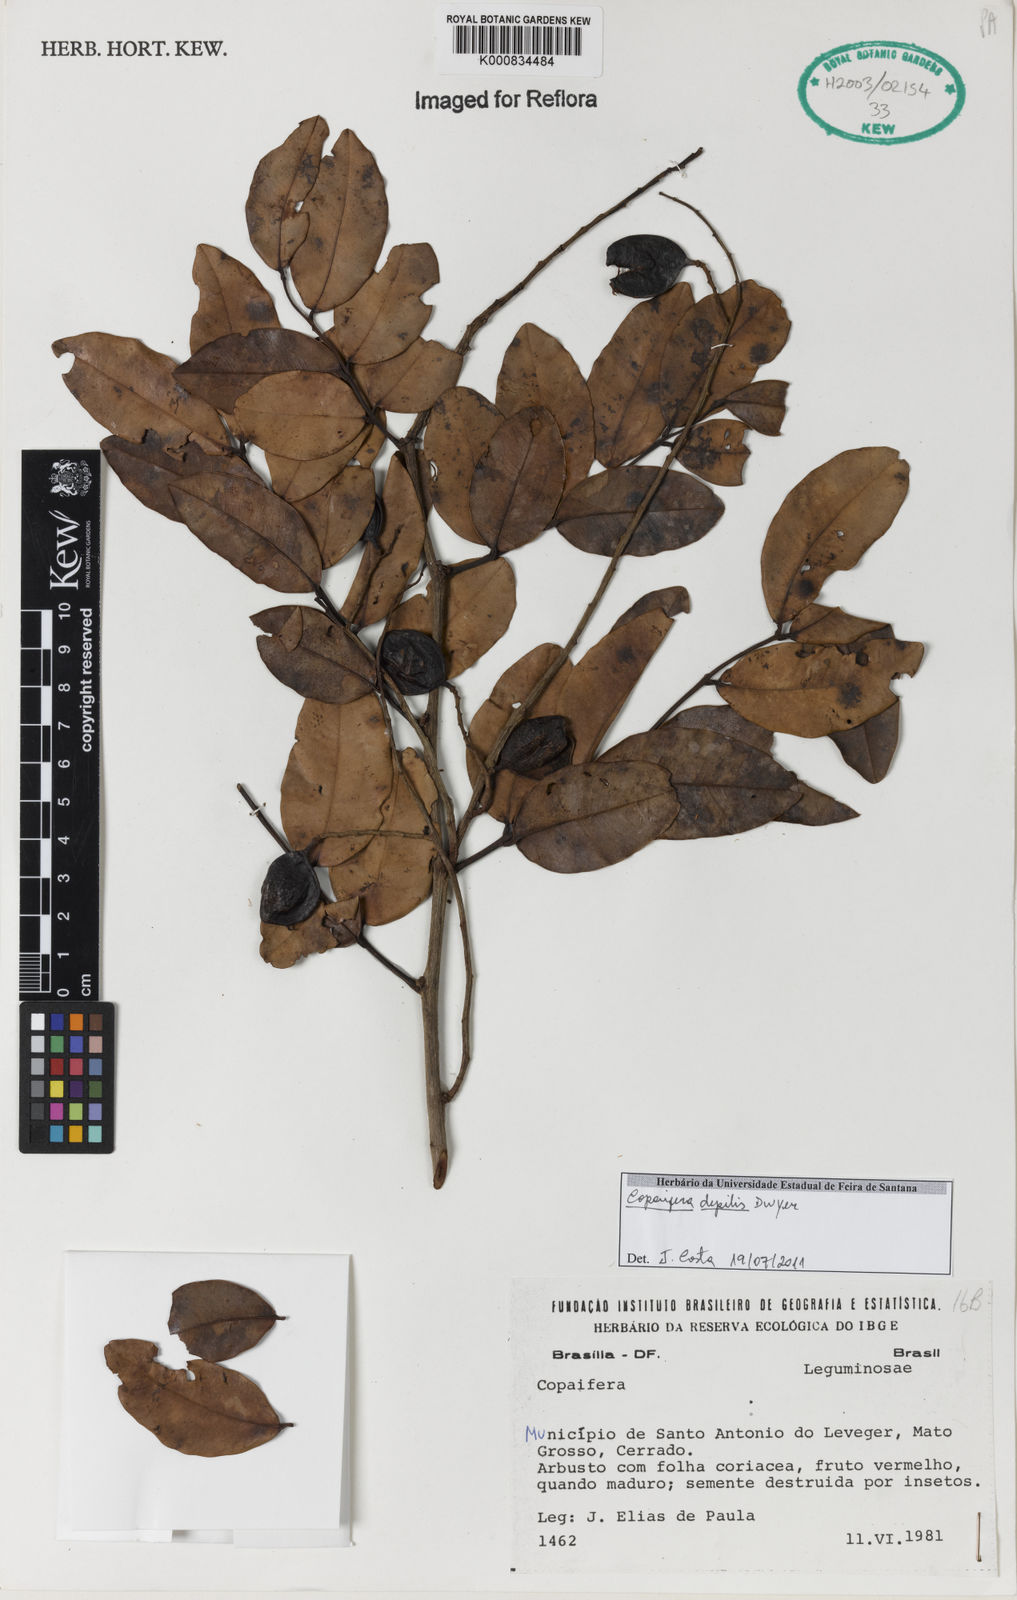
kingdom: Plantae
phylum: Tracheophyta
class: Magnoliopsida
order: Fabales
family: Fabaceae
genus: Copaifera
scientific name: Copaifera depilis
